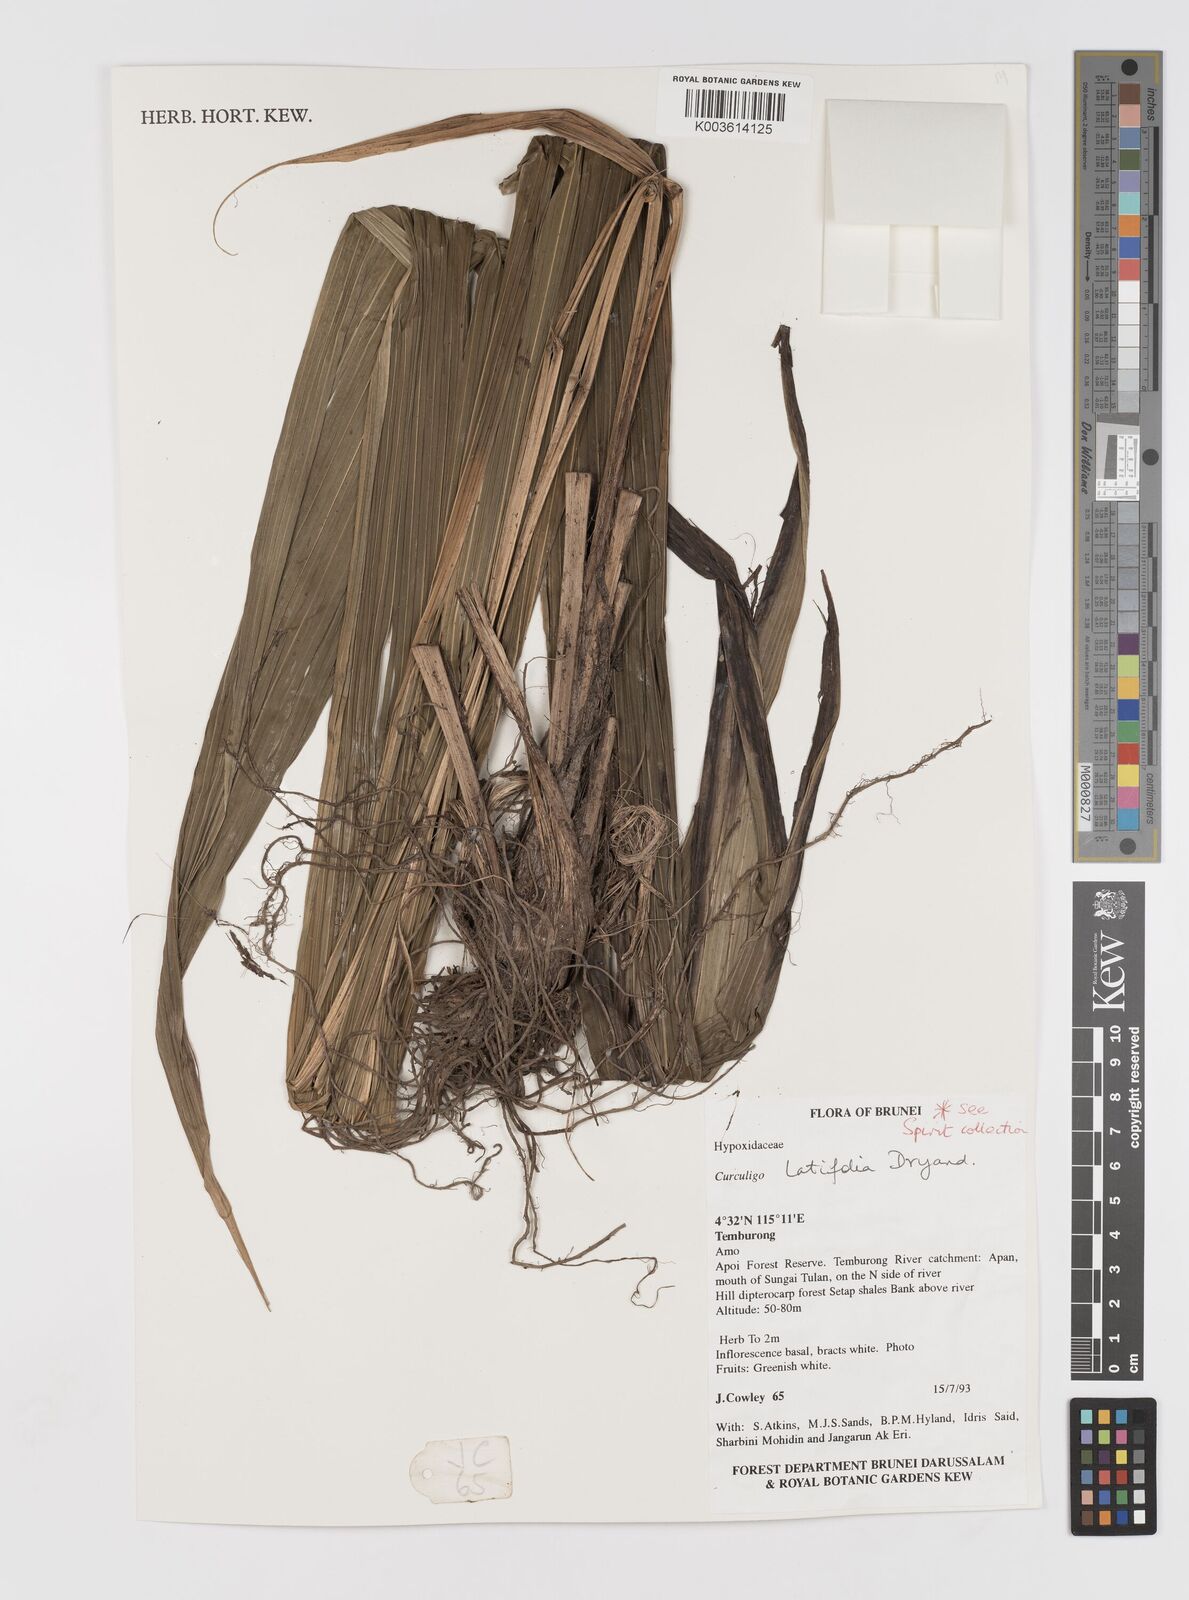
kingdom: Plantae
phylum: Tracheophyta
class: Liliopsida
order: Asparagales
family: Hypoxidaceae
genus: Curculigo
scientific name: Curculigo latifolia
